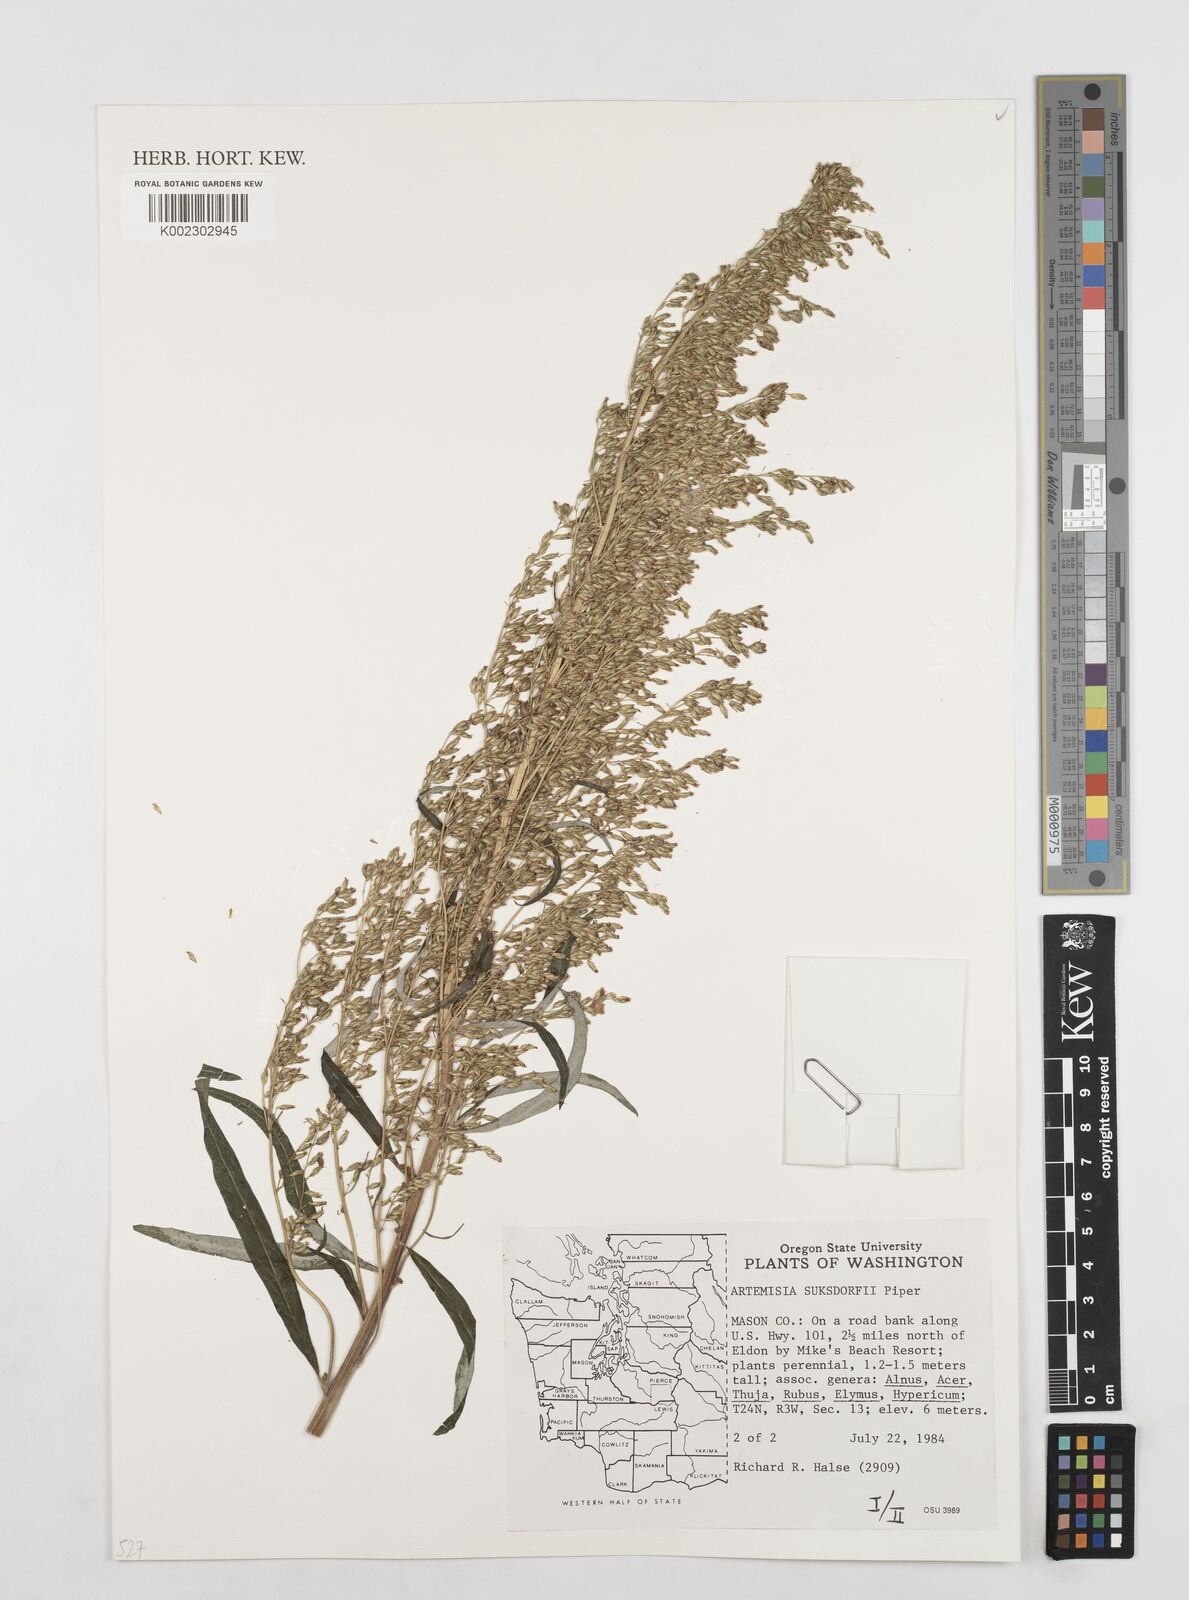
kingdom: Plantae
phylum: Tracheophyta
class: Magnoliopsida
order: Asterales
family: Asteraceae
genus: Artemisia
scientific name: Artemisia douglasiana
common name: Northwest mugwort
